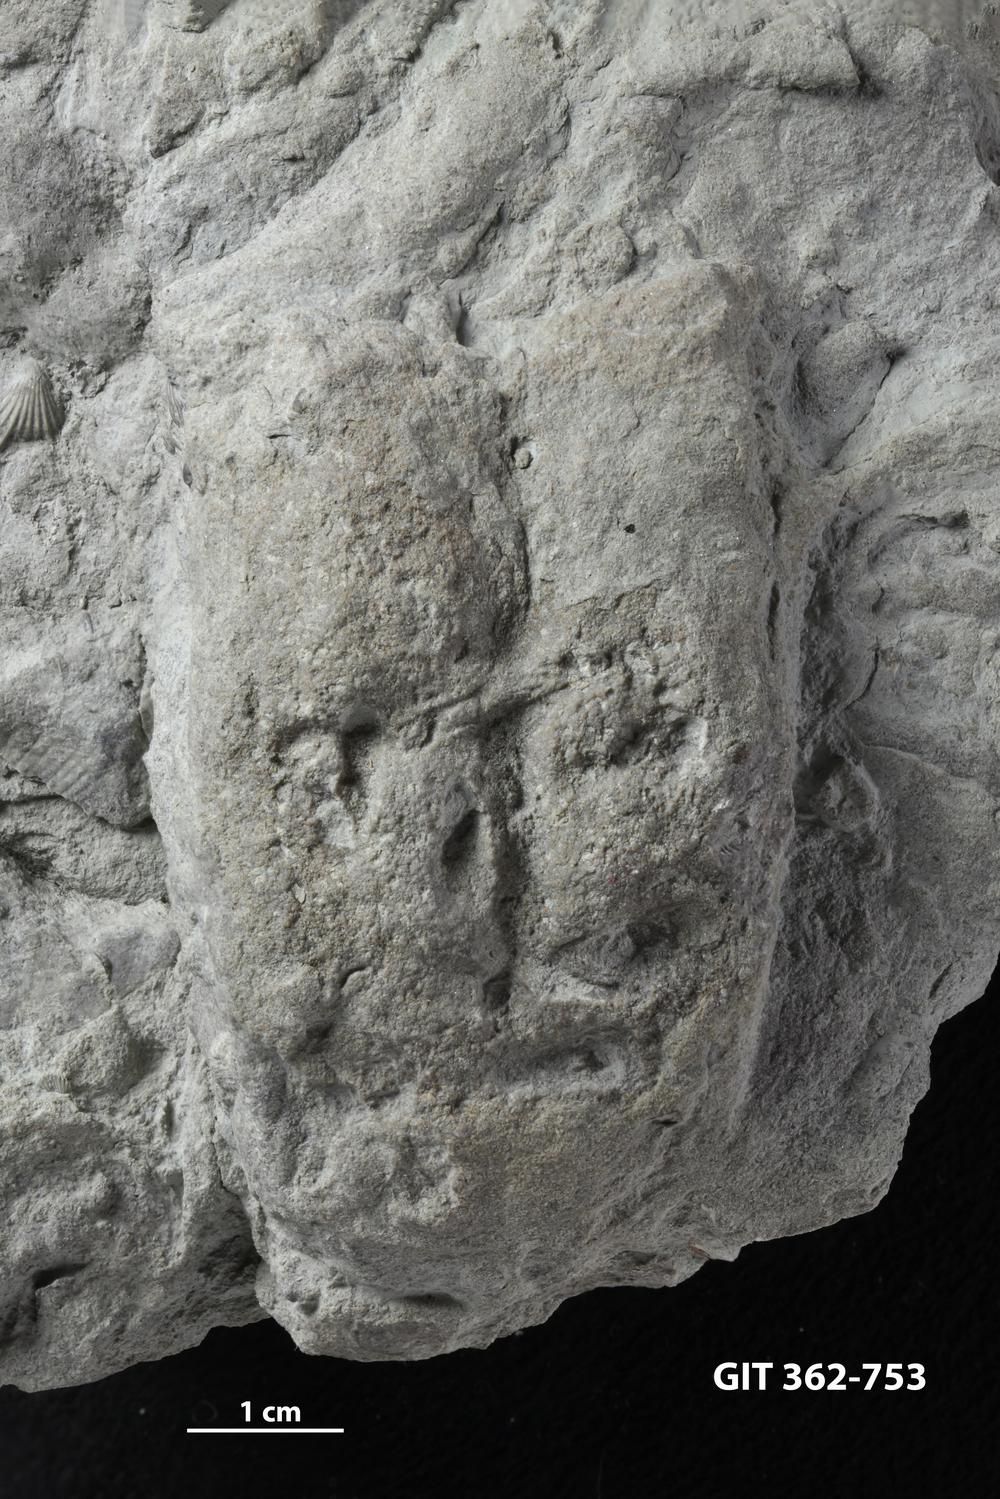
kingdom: Animalia
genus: Rusophycus
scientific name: Rusophycus
